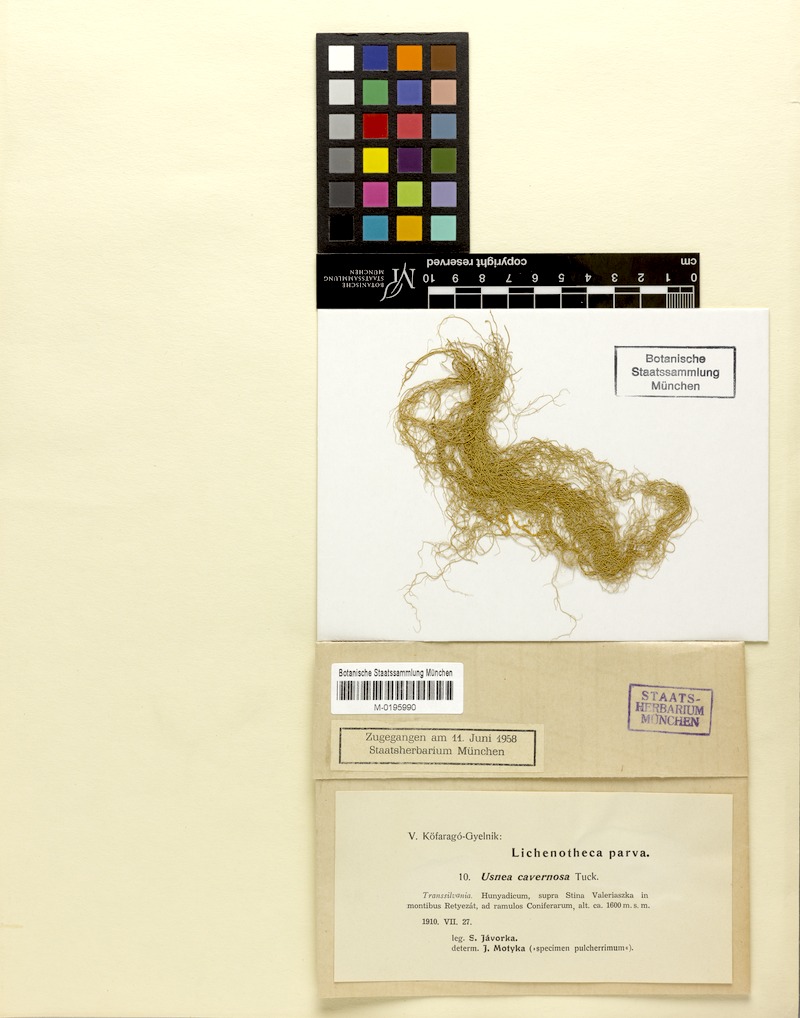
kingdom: Fungi
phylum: Ascomycota
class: Lecanoromycetes
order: Lecanorales
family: Parmeliaceae
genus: Usnea
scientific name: Usnea cavernosa
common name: Pitted beard lichen
